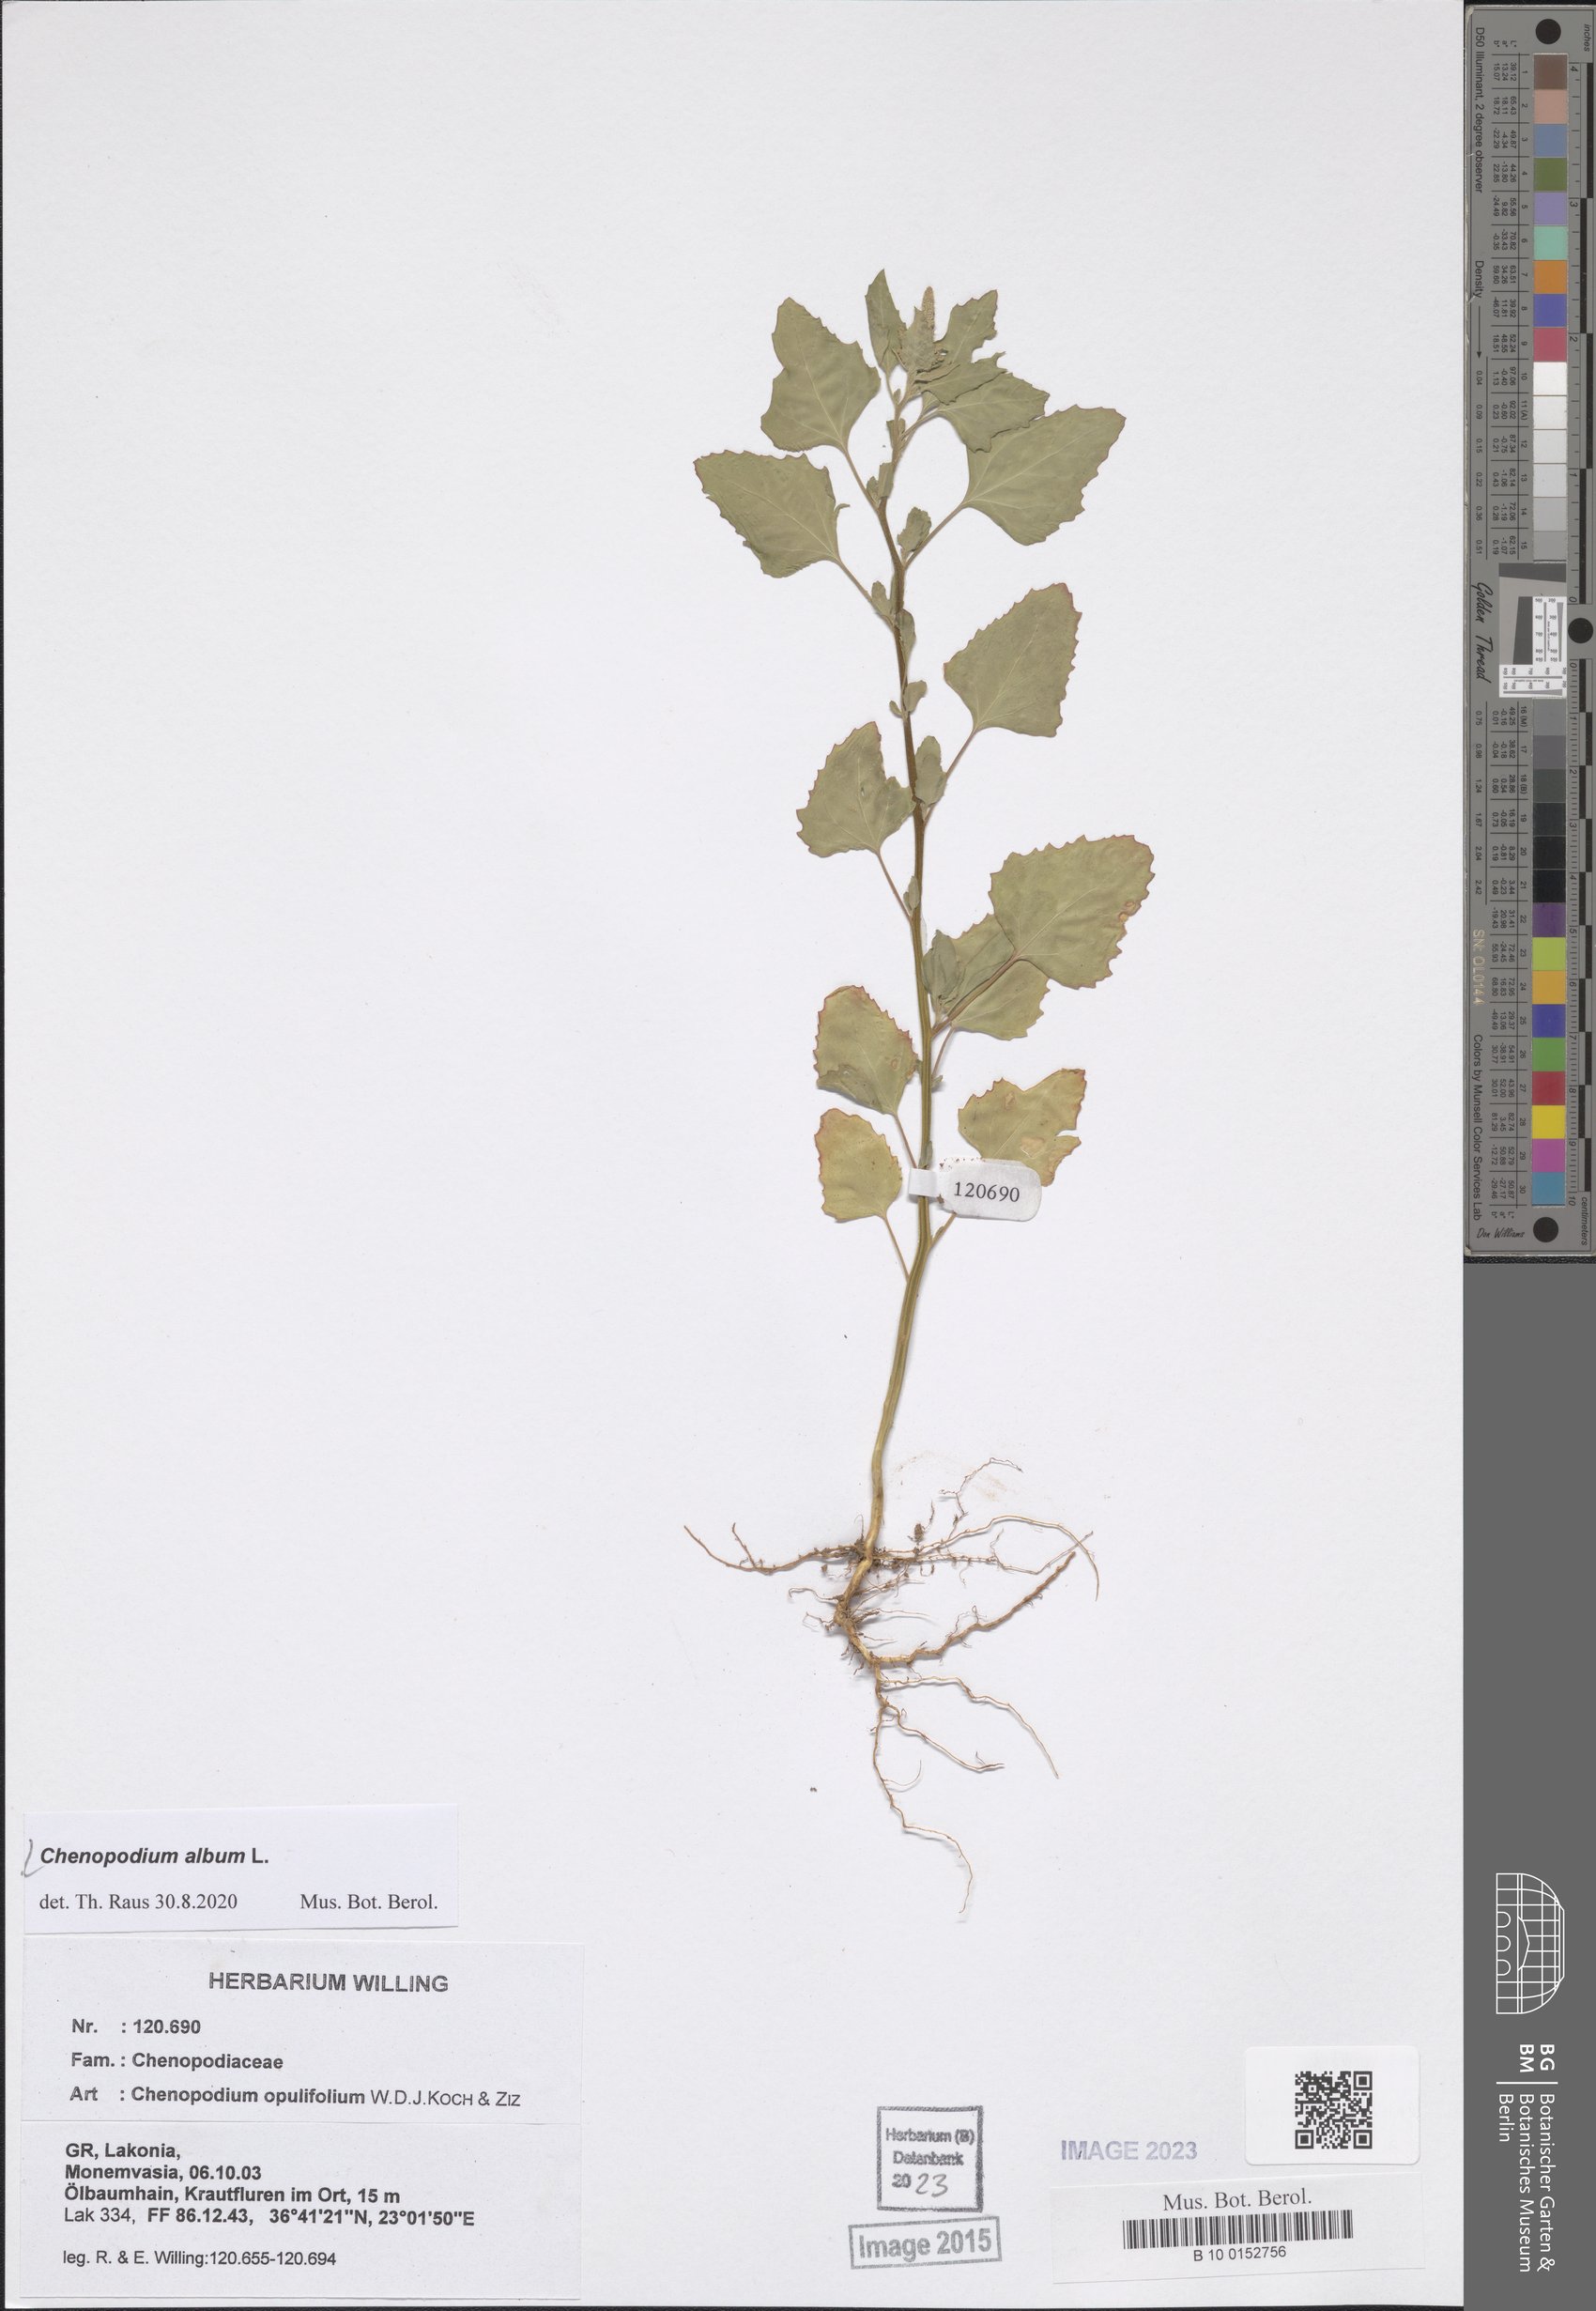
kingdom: Plantae
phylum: Tracheophyta
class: Magnoliopsida
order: Caryophyllales
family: Amaranthaceae
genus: Chenopodium
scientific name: Chenopodium album
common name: Fat-hen
